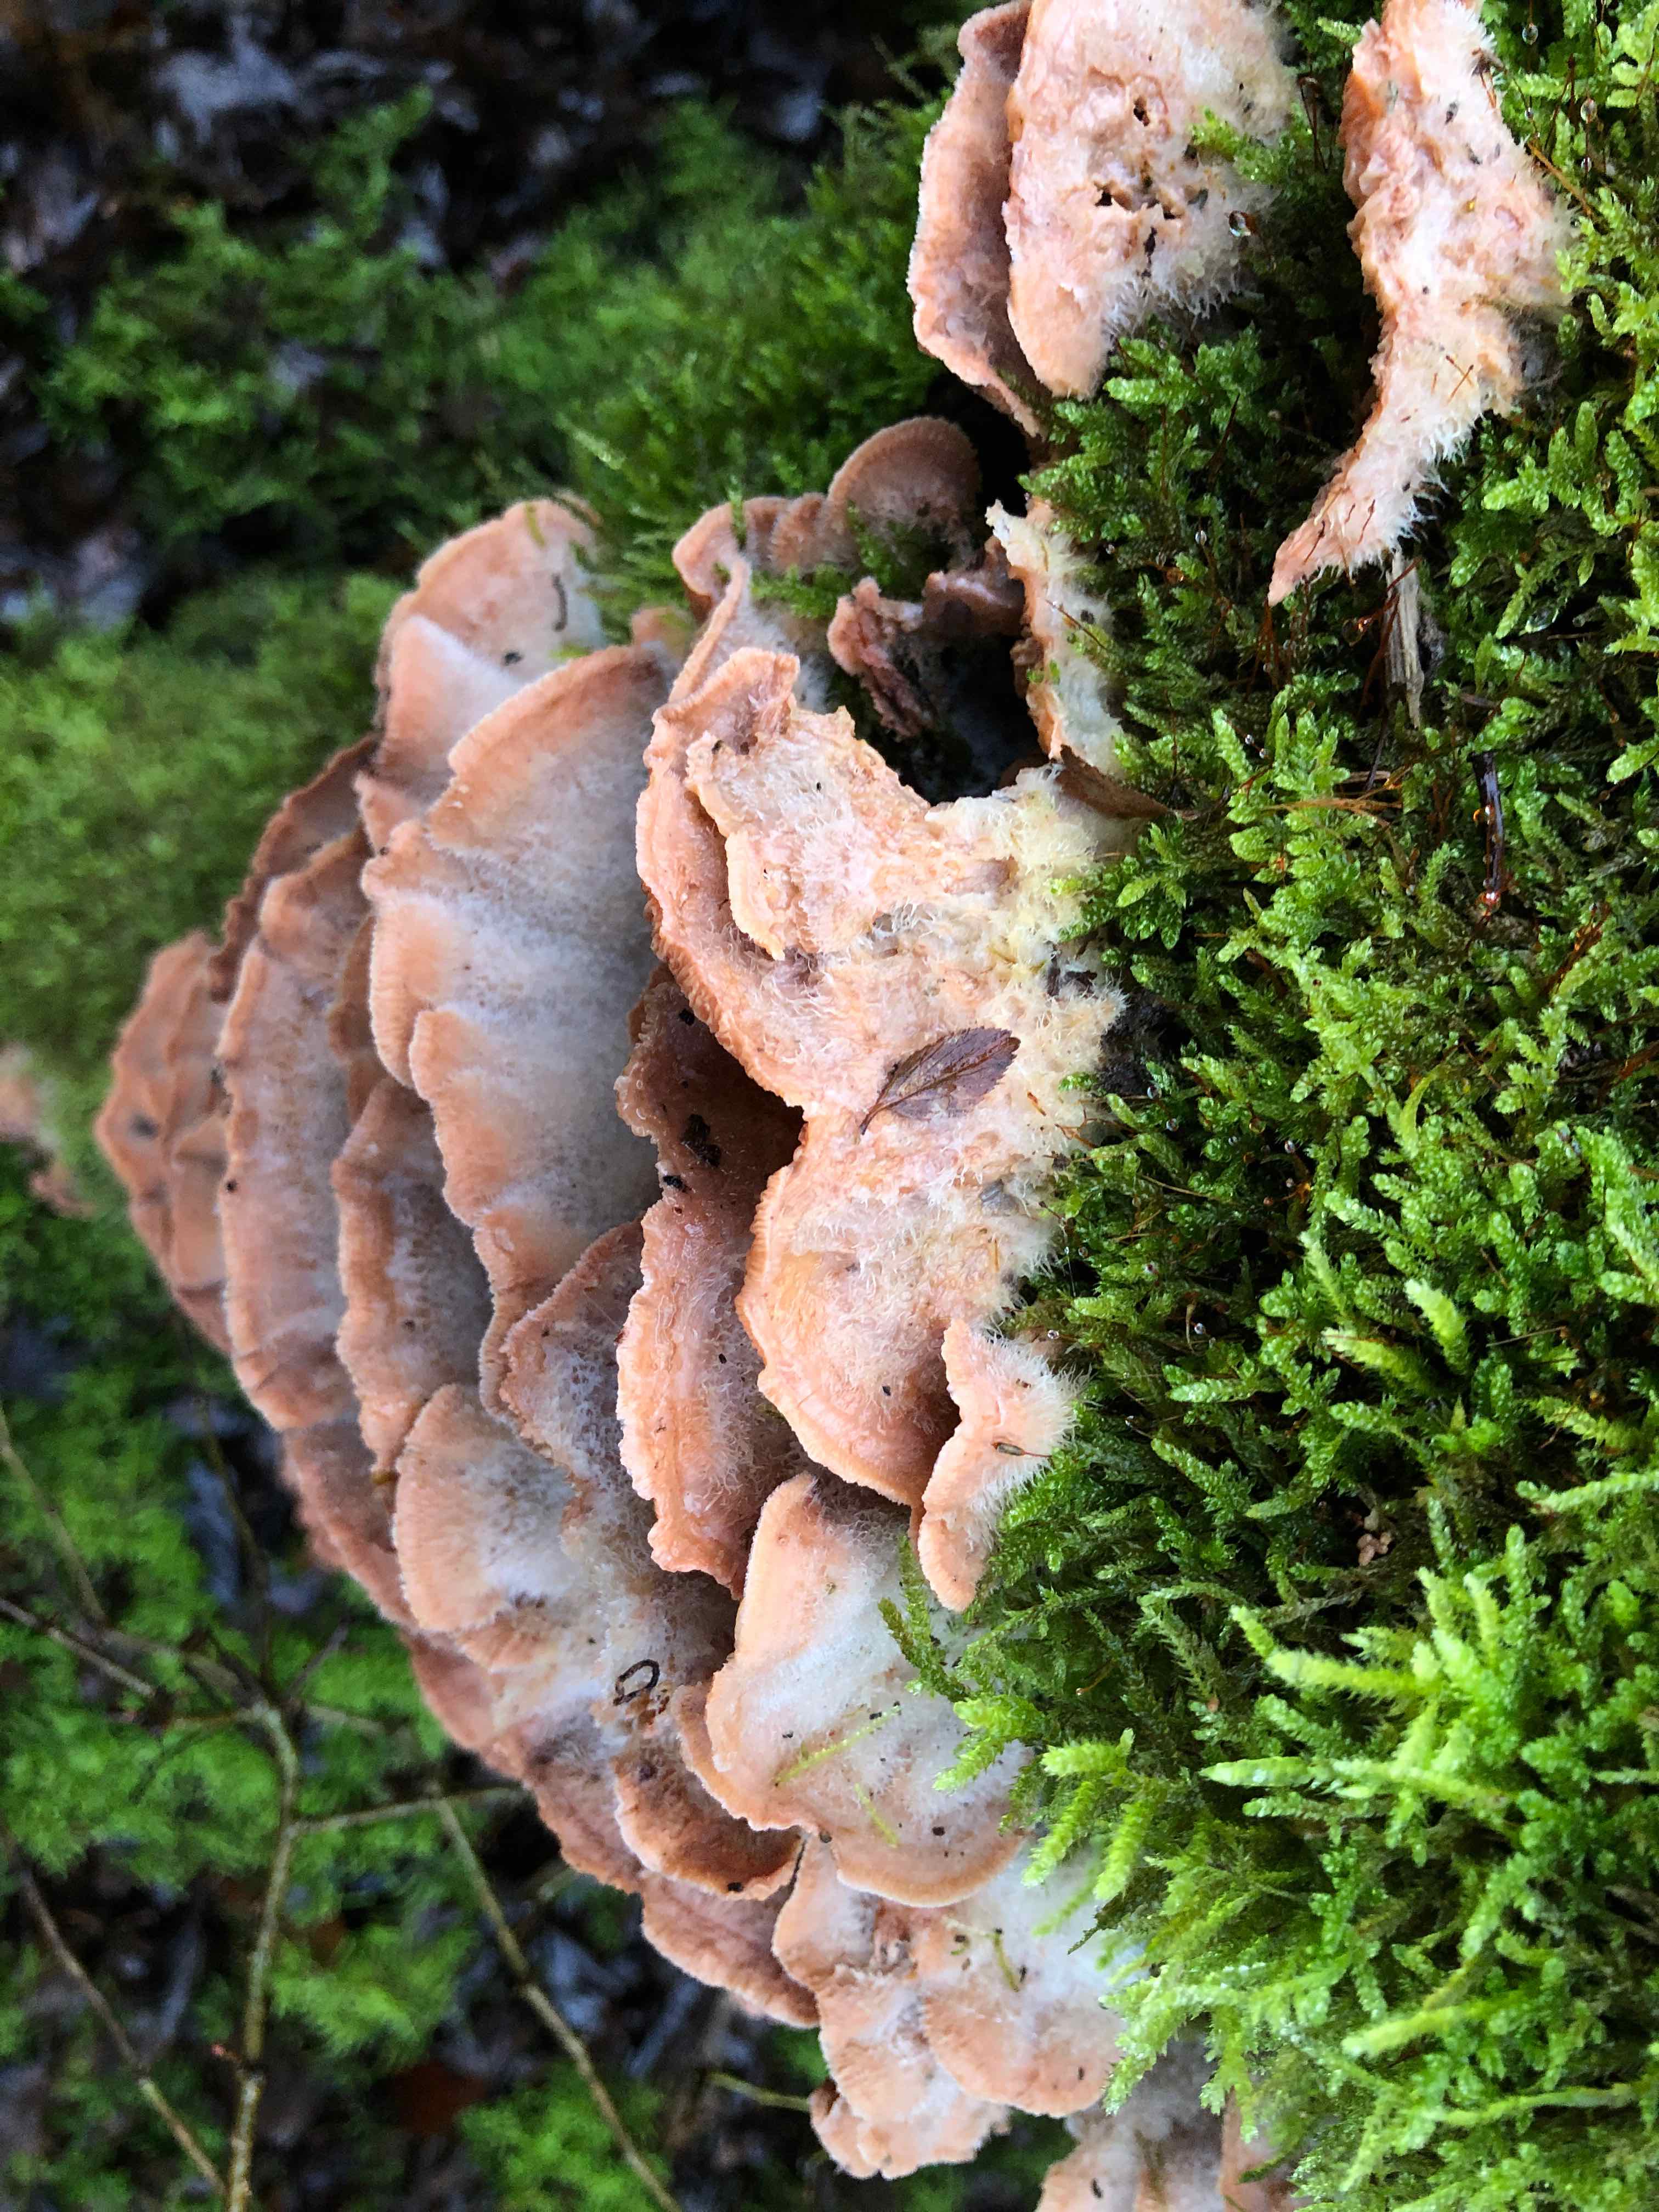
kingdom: Fungi
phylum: Basidiomycota
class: Agaricomycetes
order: Polyporales
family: Meruliaceae
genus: Phlebia
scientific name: Phlebia tremellosa
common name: bævrende åresvamp
